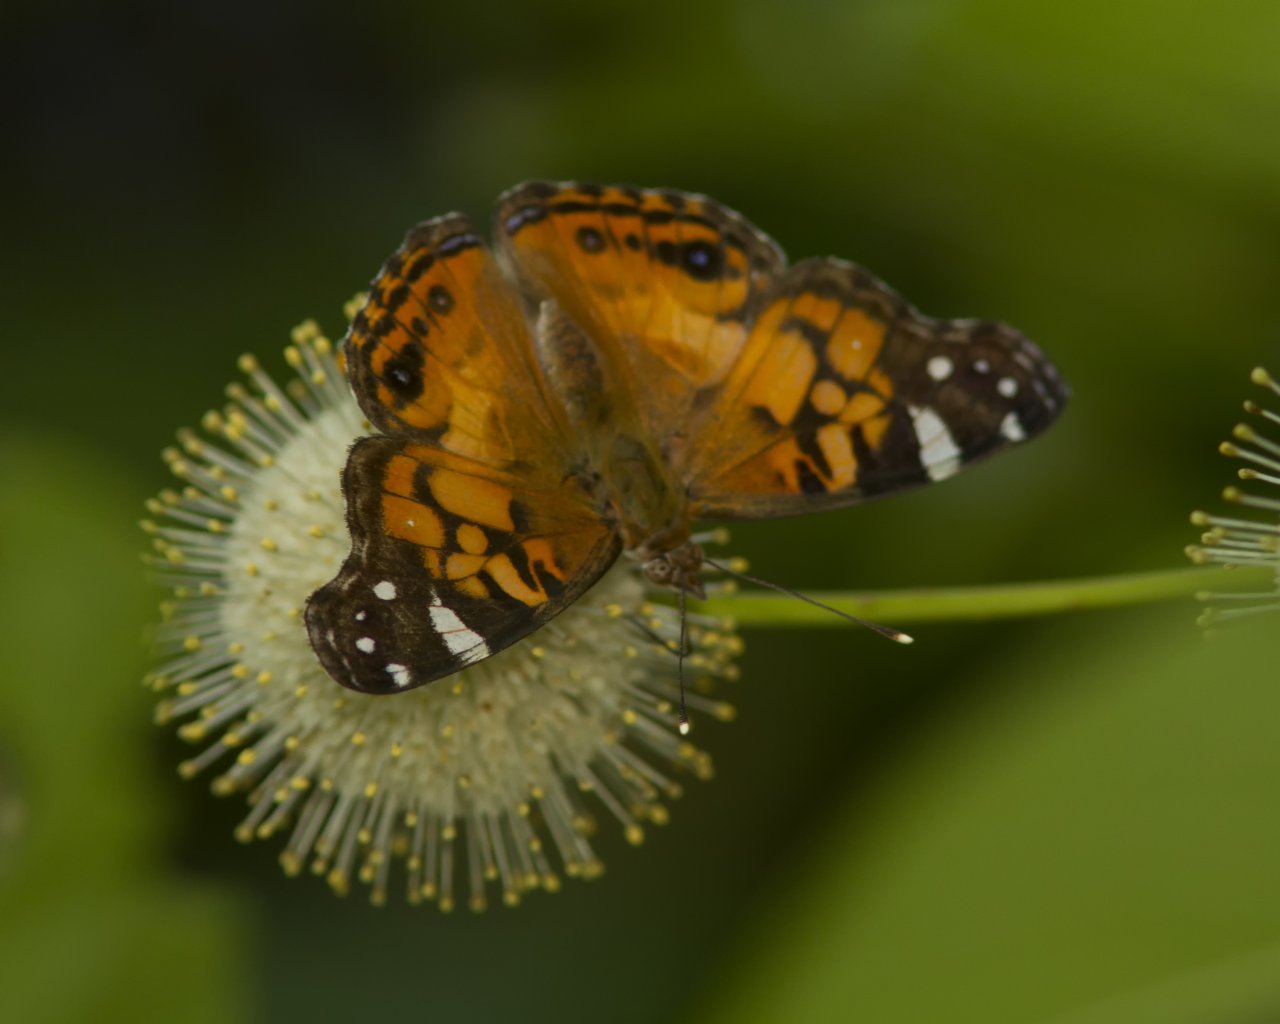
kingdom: Animalia
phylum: Arthropoda
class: Insecta
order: Lepidoptera
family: Nymphalidae
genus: Vanessa
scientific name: Vanessa virginiensis
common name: American Lady
